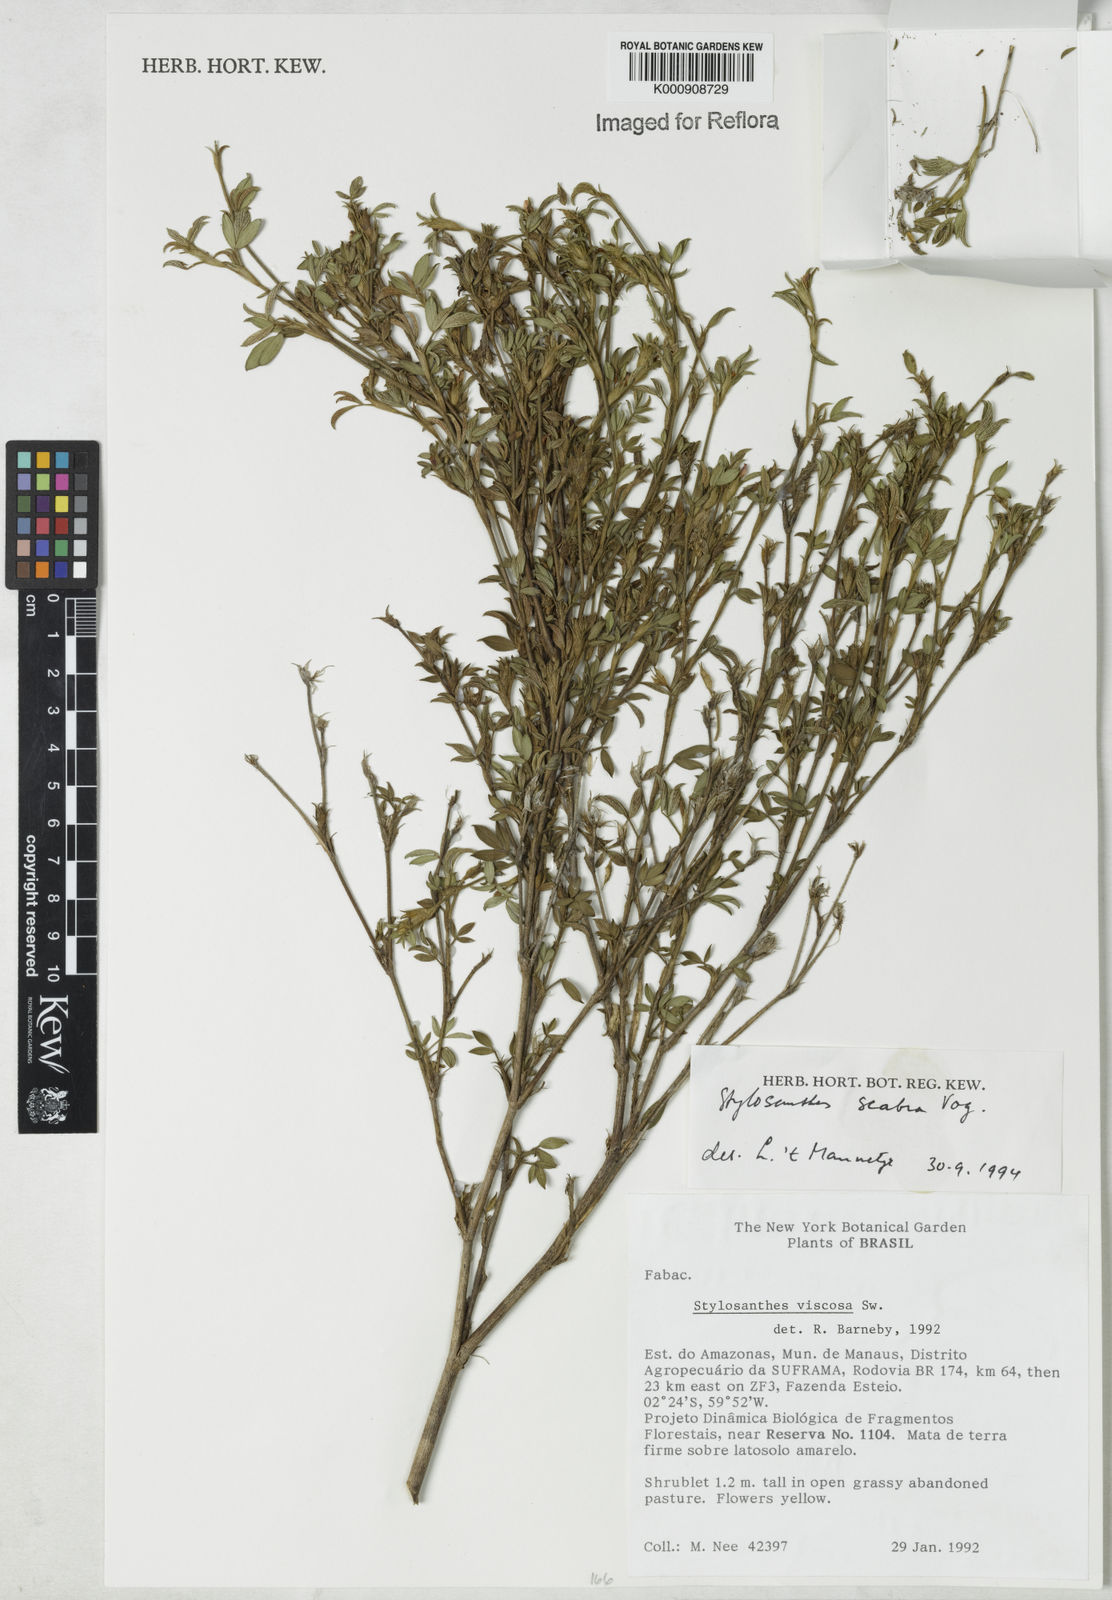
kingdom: Plantae
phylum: Tracheophyta
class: Magnoliopsida
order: Fabales
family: Fabaceae
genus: Stylosanthes
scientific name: Stylosanthes scabra
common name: Pencilflower
